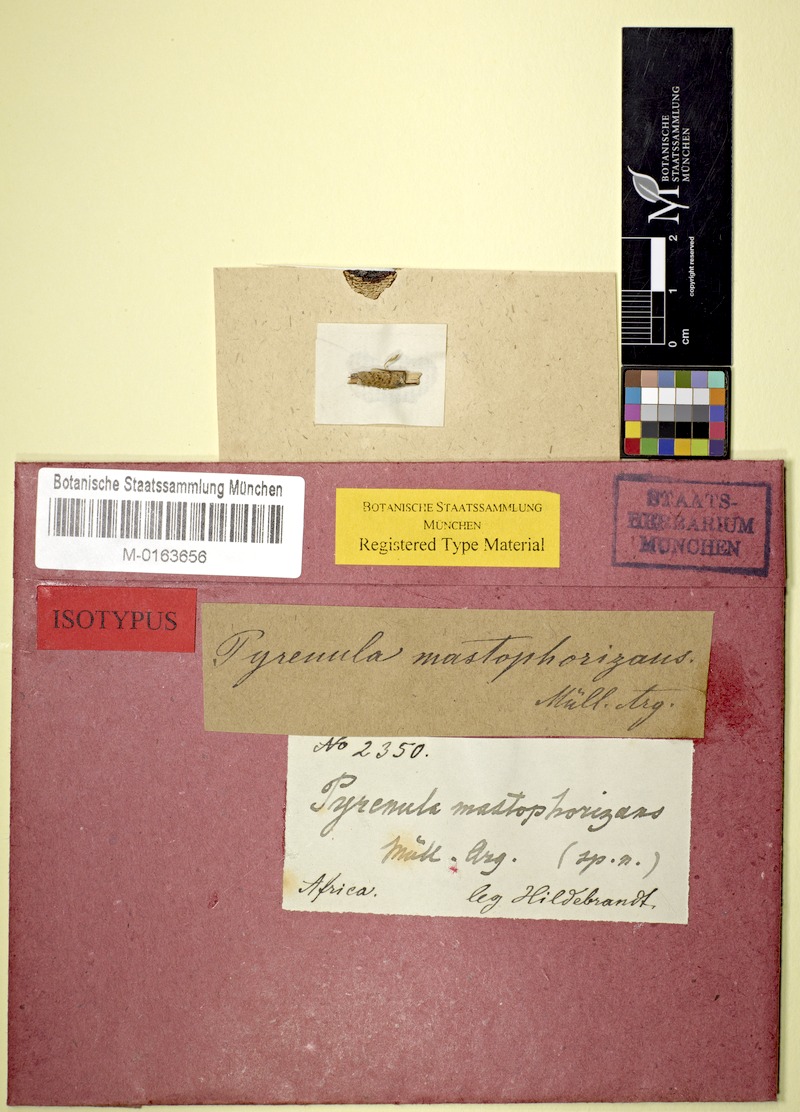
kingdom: Fungi
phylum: Ascomycota
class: Eurotiomycetes
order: Pyrenulales
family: Pyrenulaceae
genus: Pyrenula
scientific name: Pyrenula mastophorizans
